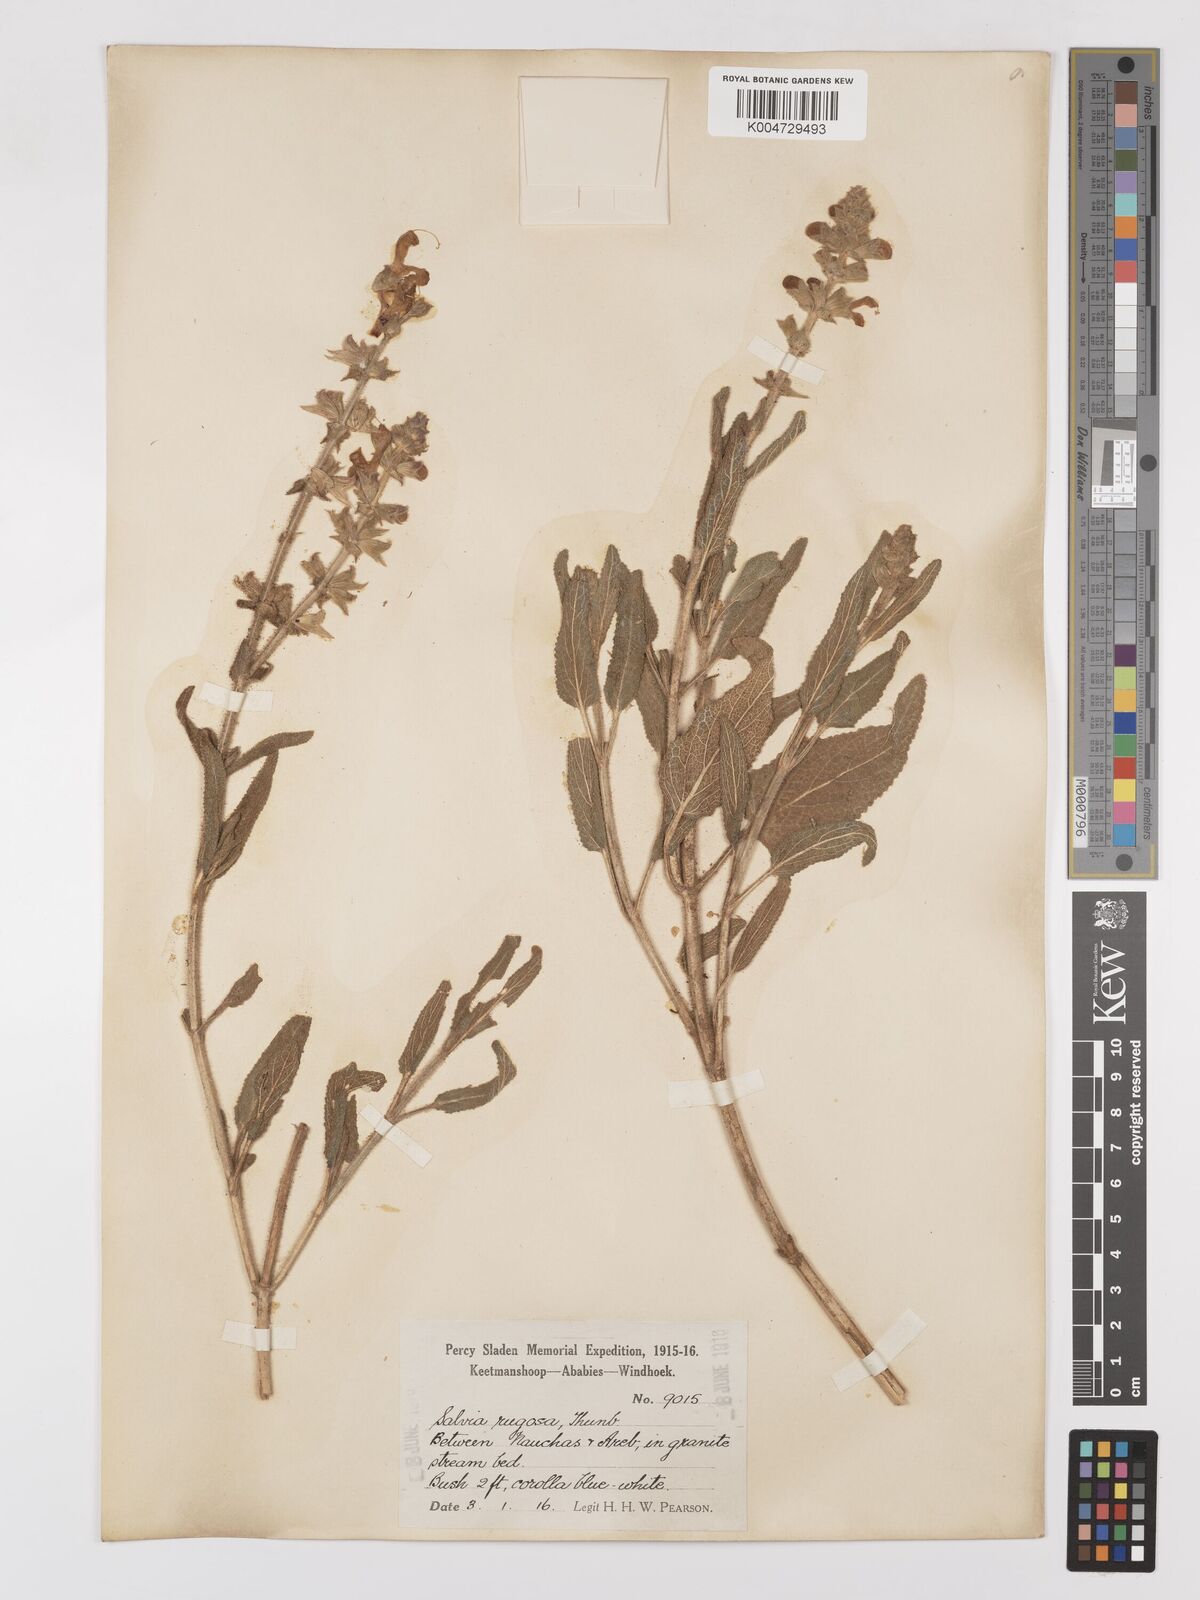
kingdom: Plantae
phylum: Tracheophyta
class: Magnoliopsida
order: Lamiales
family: Lamiaceae
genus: Salvia
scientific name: Salvia
